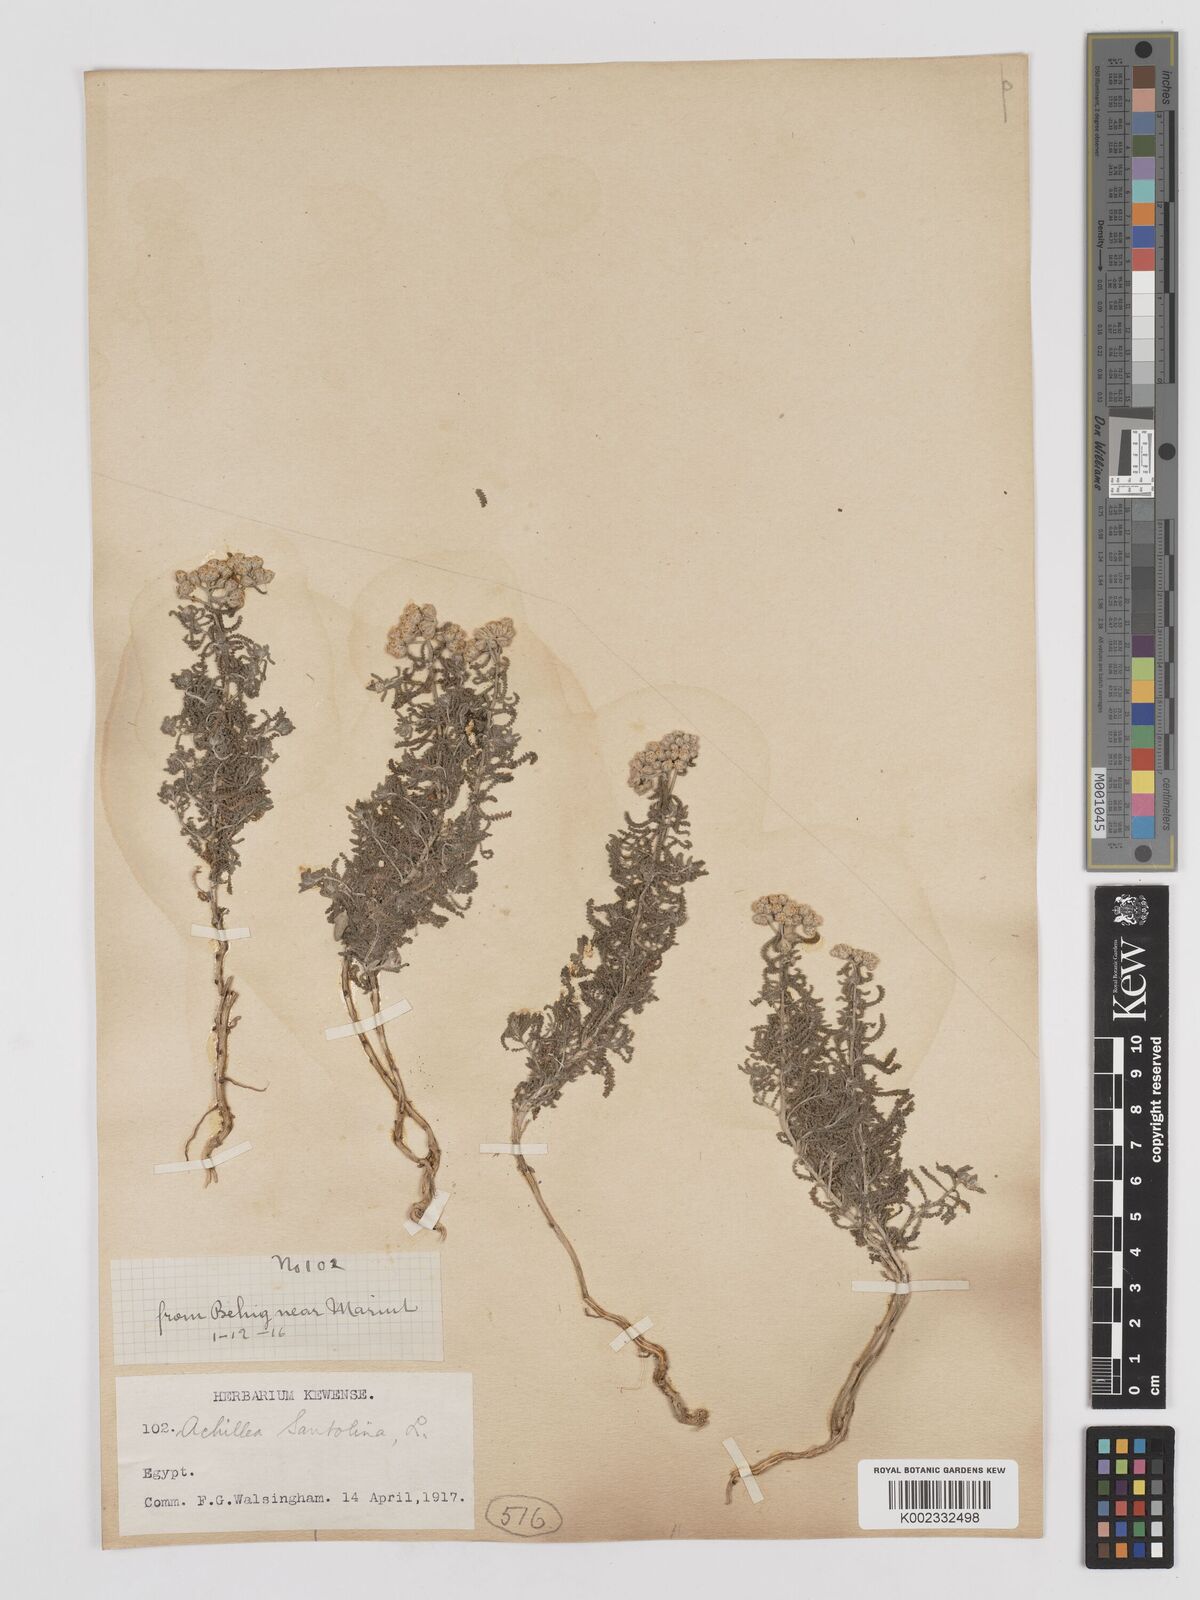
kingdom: Plantae
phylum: Tracheophyta
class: Magnoliopsida
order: Asterales
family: Asteraceae
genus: Achillea
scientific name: Achillea tenuifolia
